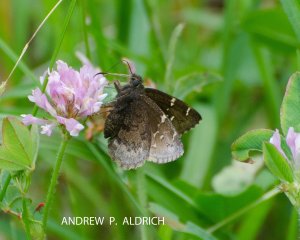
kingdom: Animalia
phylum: Arthropoda
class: Insecta
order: Lepidoptera
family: Hesperiidae
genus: Autochton
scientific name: Autochton
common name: Northern Cloudywing
